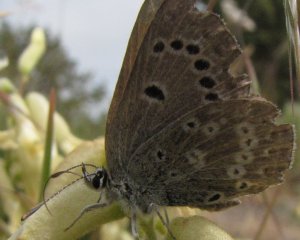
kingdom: Animalia
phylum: Arthropoda
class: Insecta
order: Lepidoptera
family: Lycaenidae
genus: Icaricia
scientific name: Icaricia icarioides
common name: Boisduval's Blue
